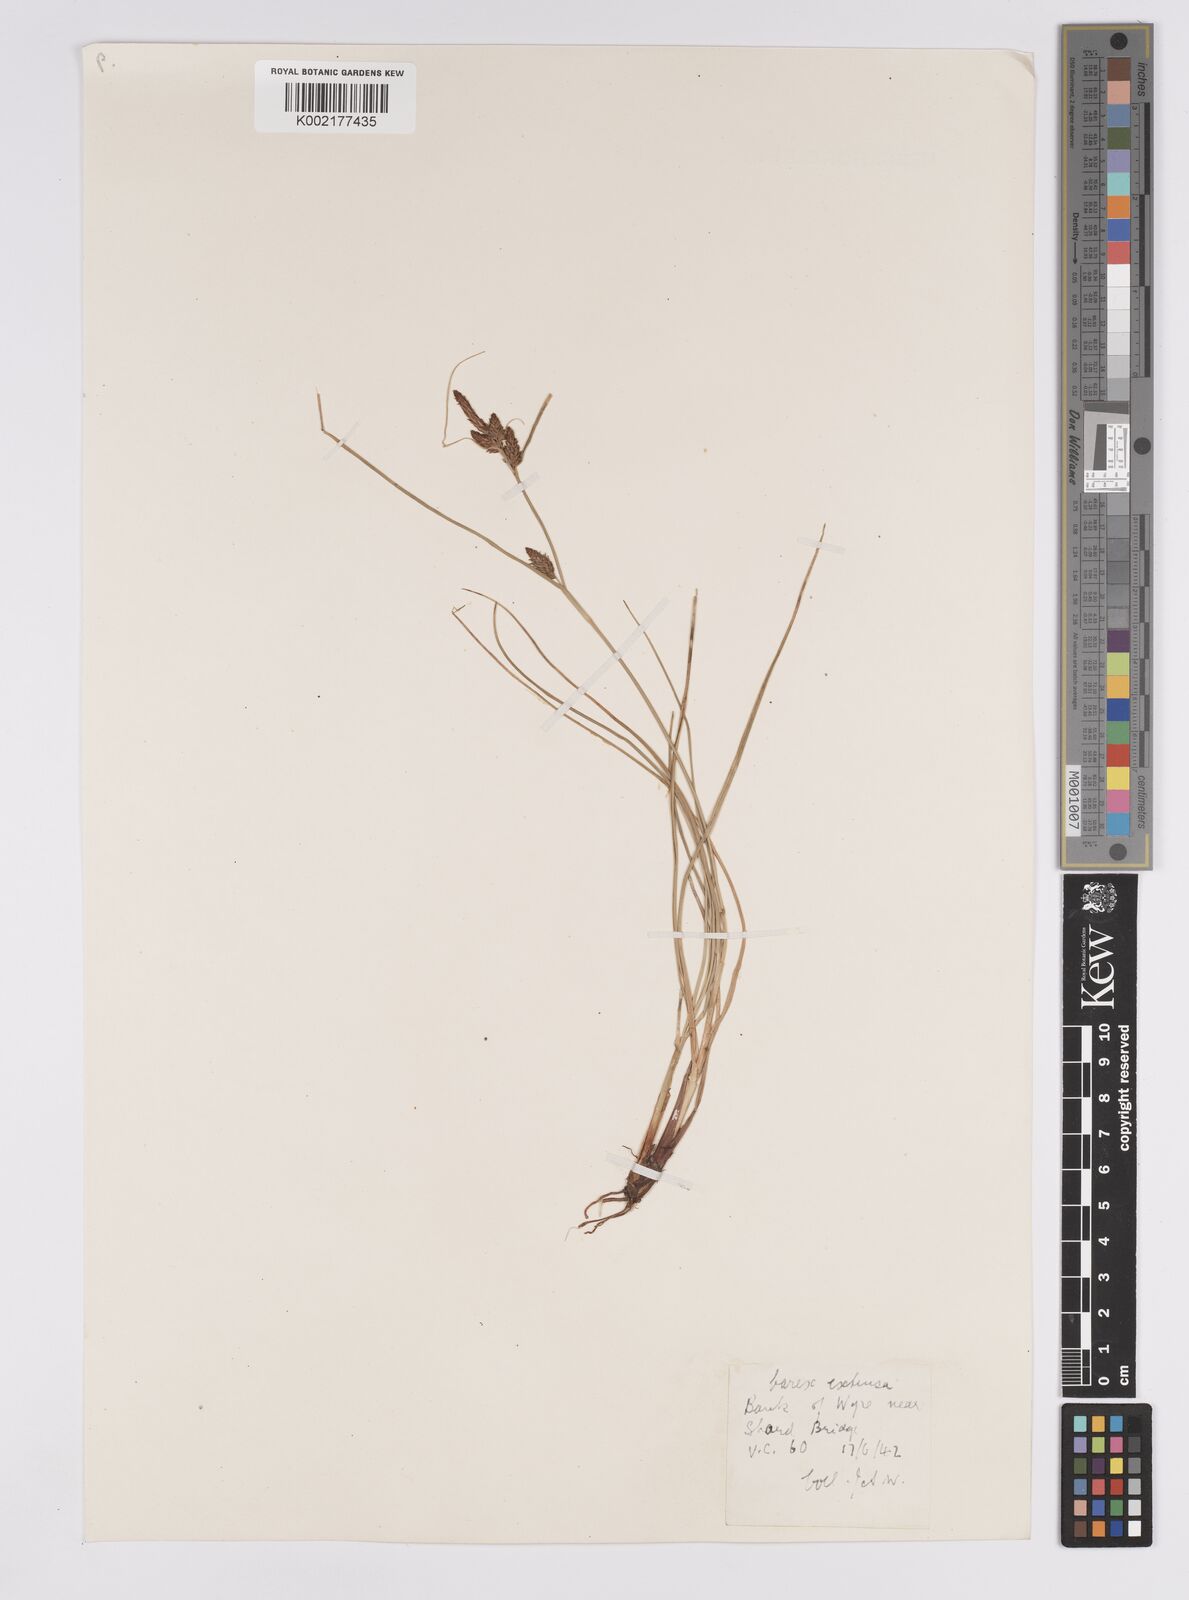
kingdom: Plantae
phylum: Tracheophyta
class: Liliopsida
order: Poales
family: Cyperaceae
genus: Carex
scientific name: Carex extensa
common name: Long-bracted sedge
